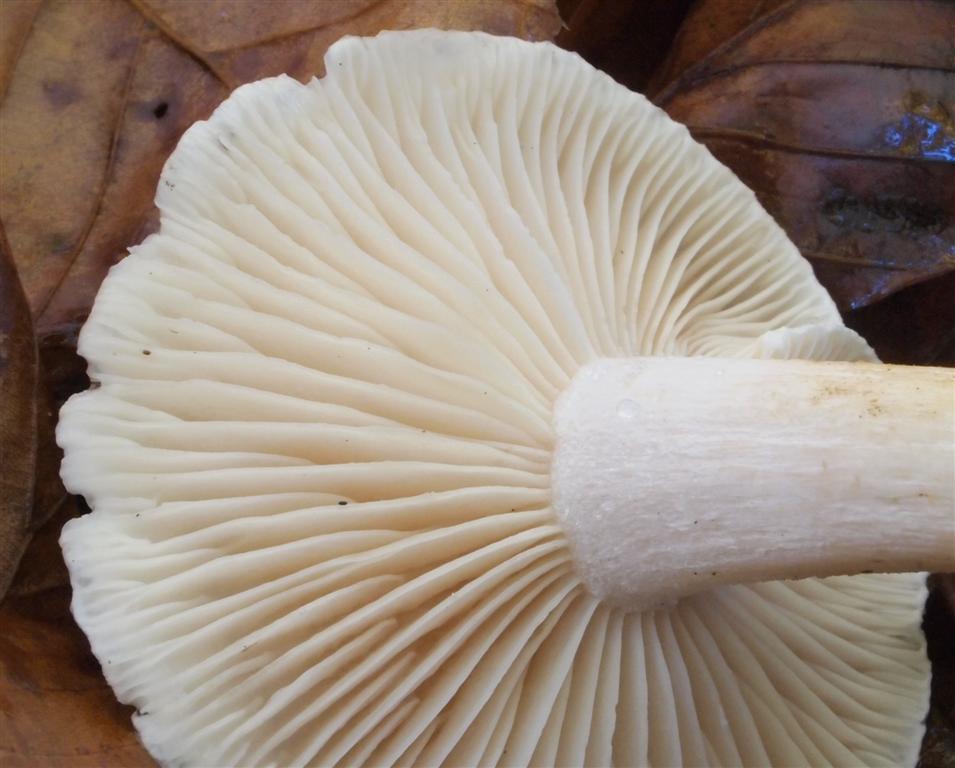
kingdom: Fungi
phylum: Basidiomycota
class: Agaricomycetes
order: Agaricales
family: Hygrophoraceae
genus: Hygrophorus
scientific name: Hygrophorus penarius
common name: spiselig sneglehat
